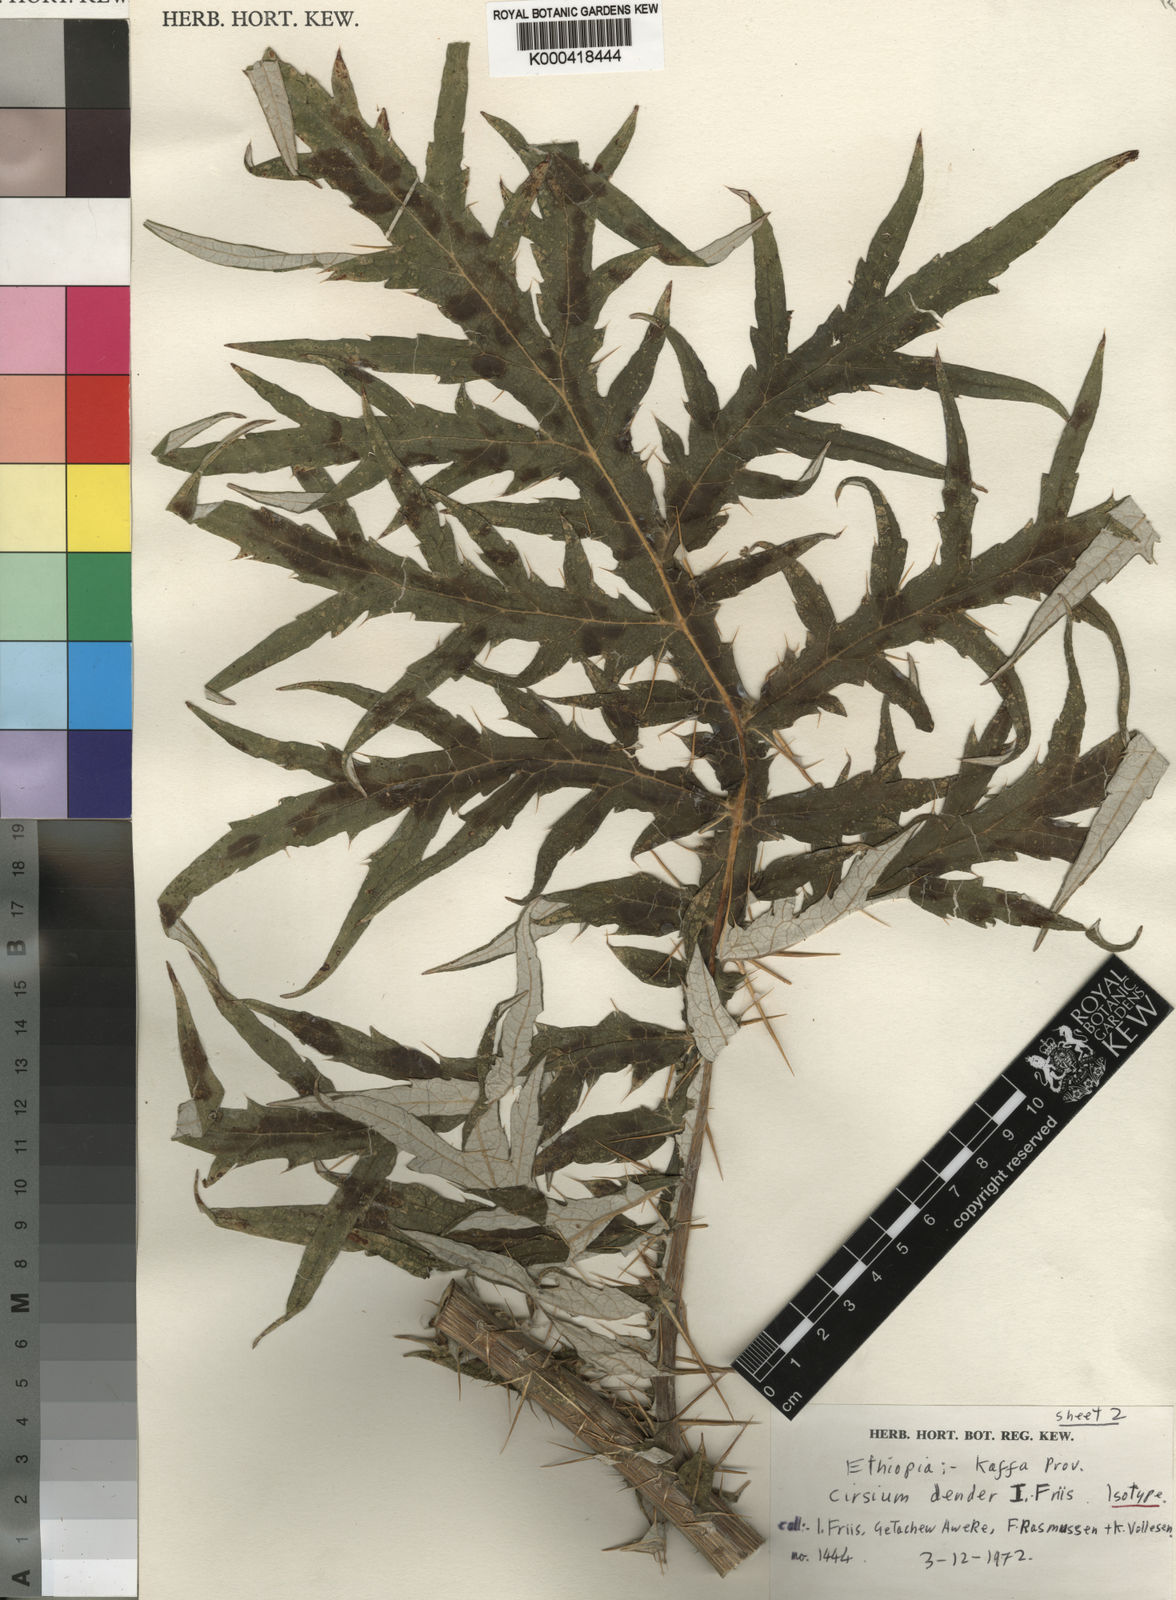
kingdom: Plantae
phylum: Tracheophyta
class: Magnoliopsida
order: Asterales
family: Asteraceae
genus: Cirsium
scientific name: Cirsium dender
